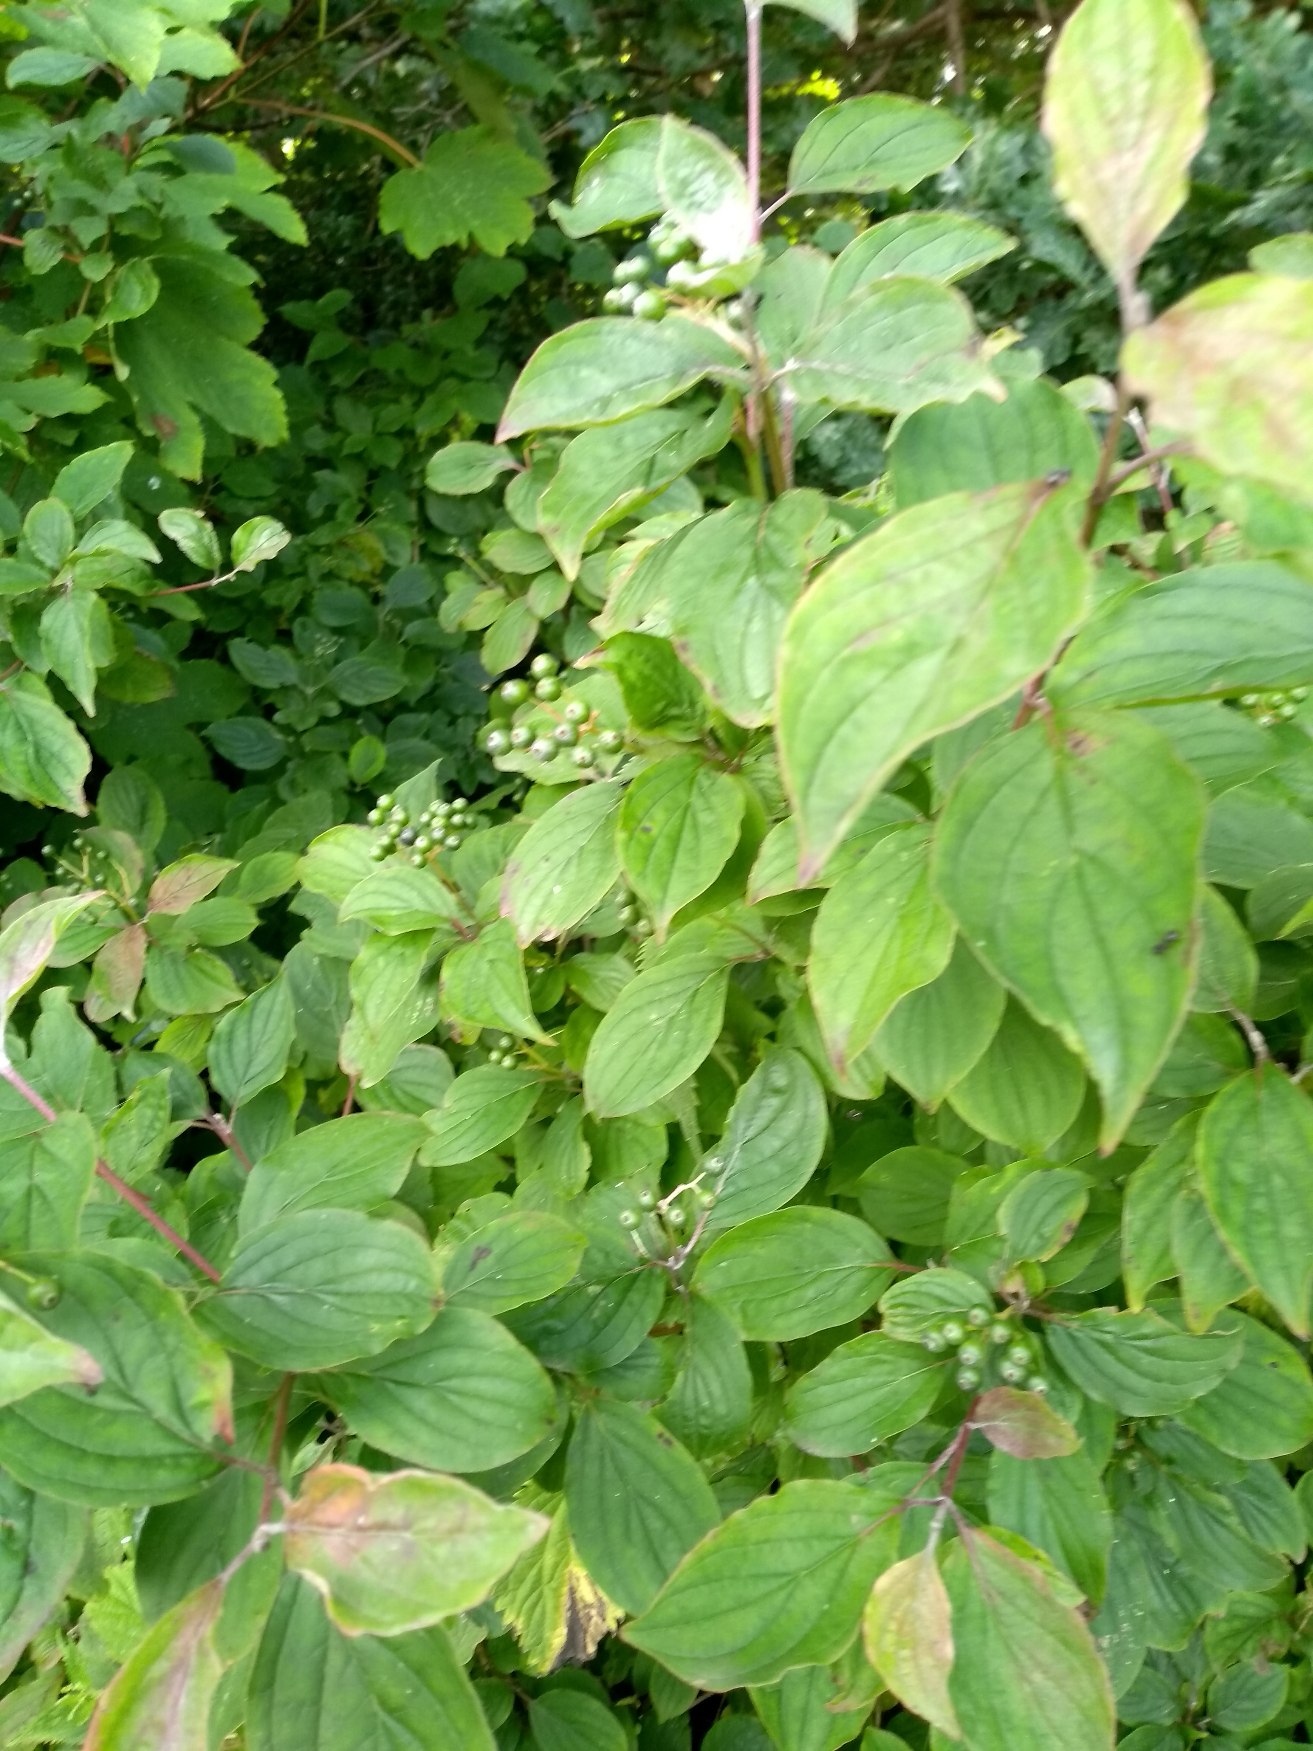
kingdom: Plantae
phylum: Tracheophyta
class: Magnoliopsida
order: Cornales
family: Cornaceae
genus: Cornus
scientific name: Cornus sanguinea
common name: Rød kornel
